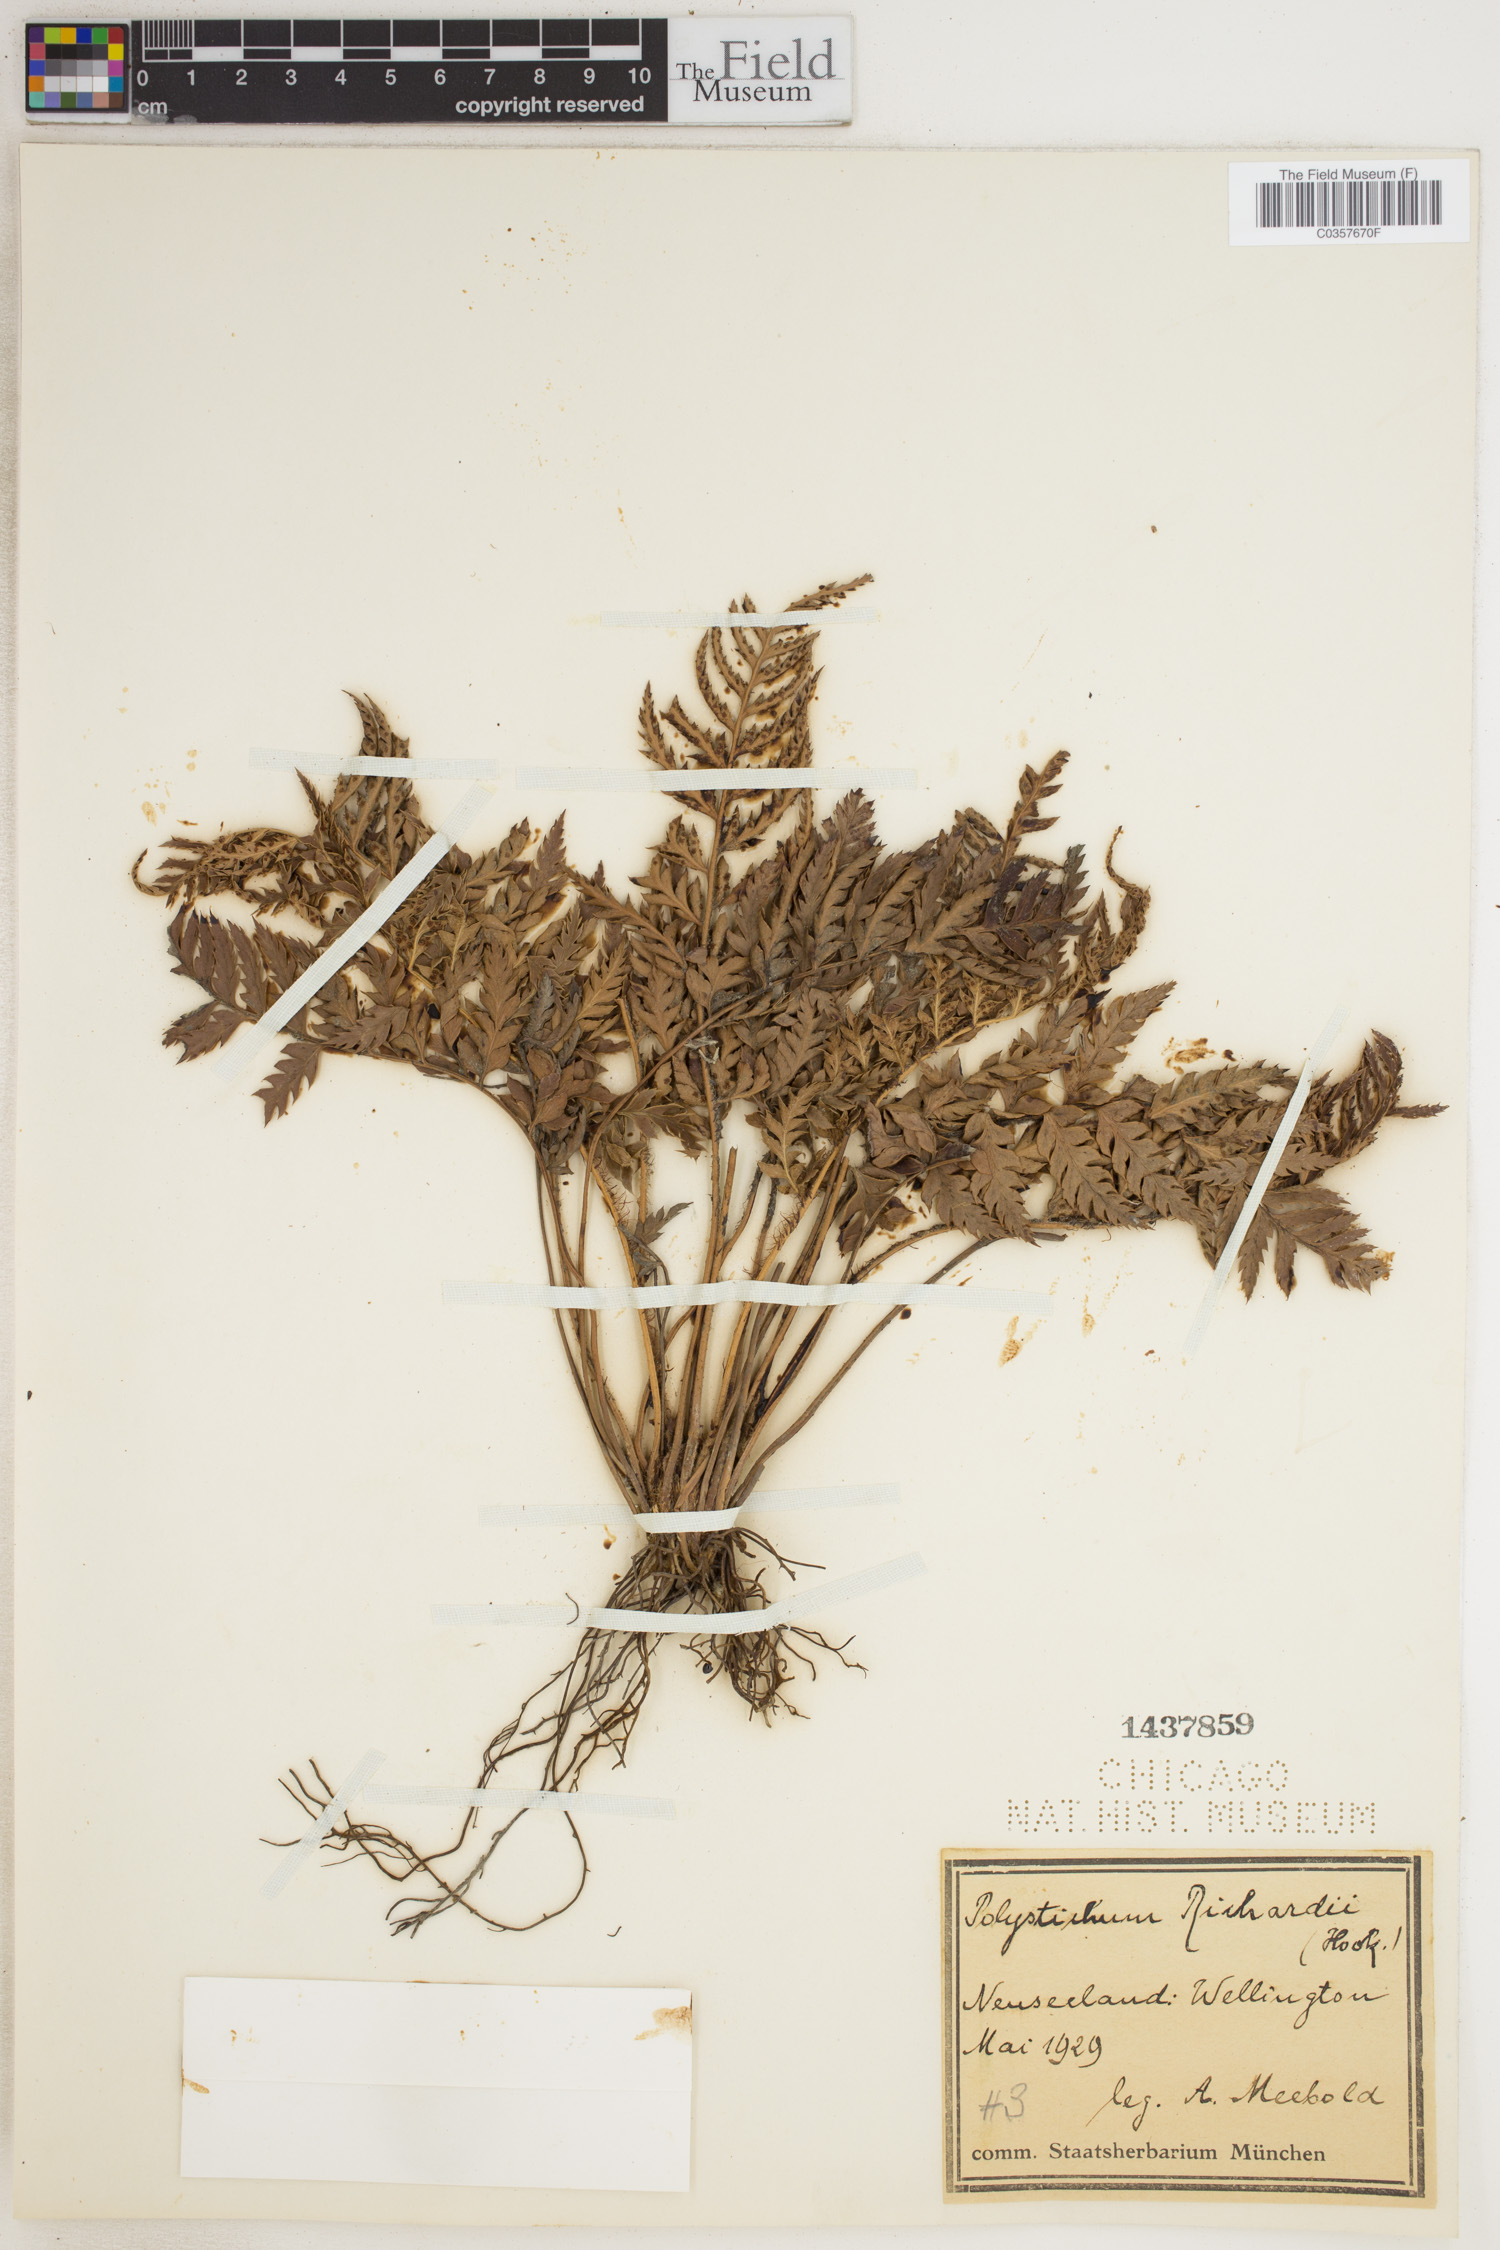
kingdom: Plantae
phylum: Tracheophyta
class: Polypodiopsida
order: Polypodiales
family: Dryopteridaceae
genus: Polystichum
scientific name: Polystichum neozelandicum
